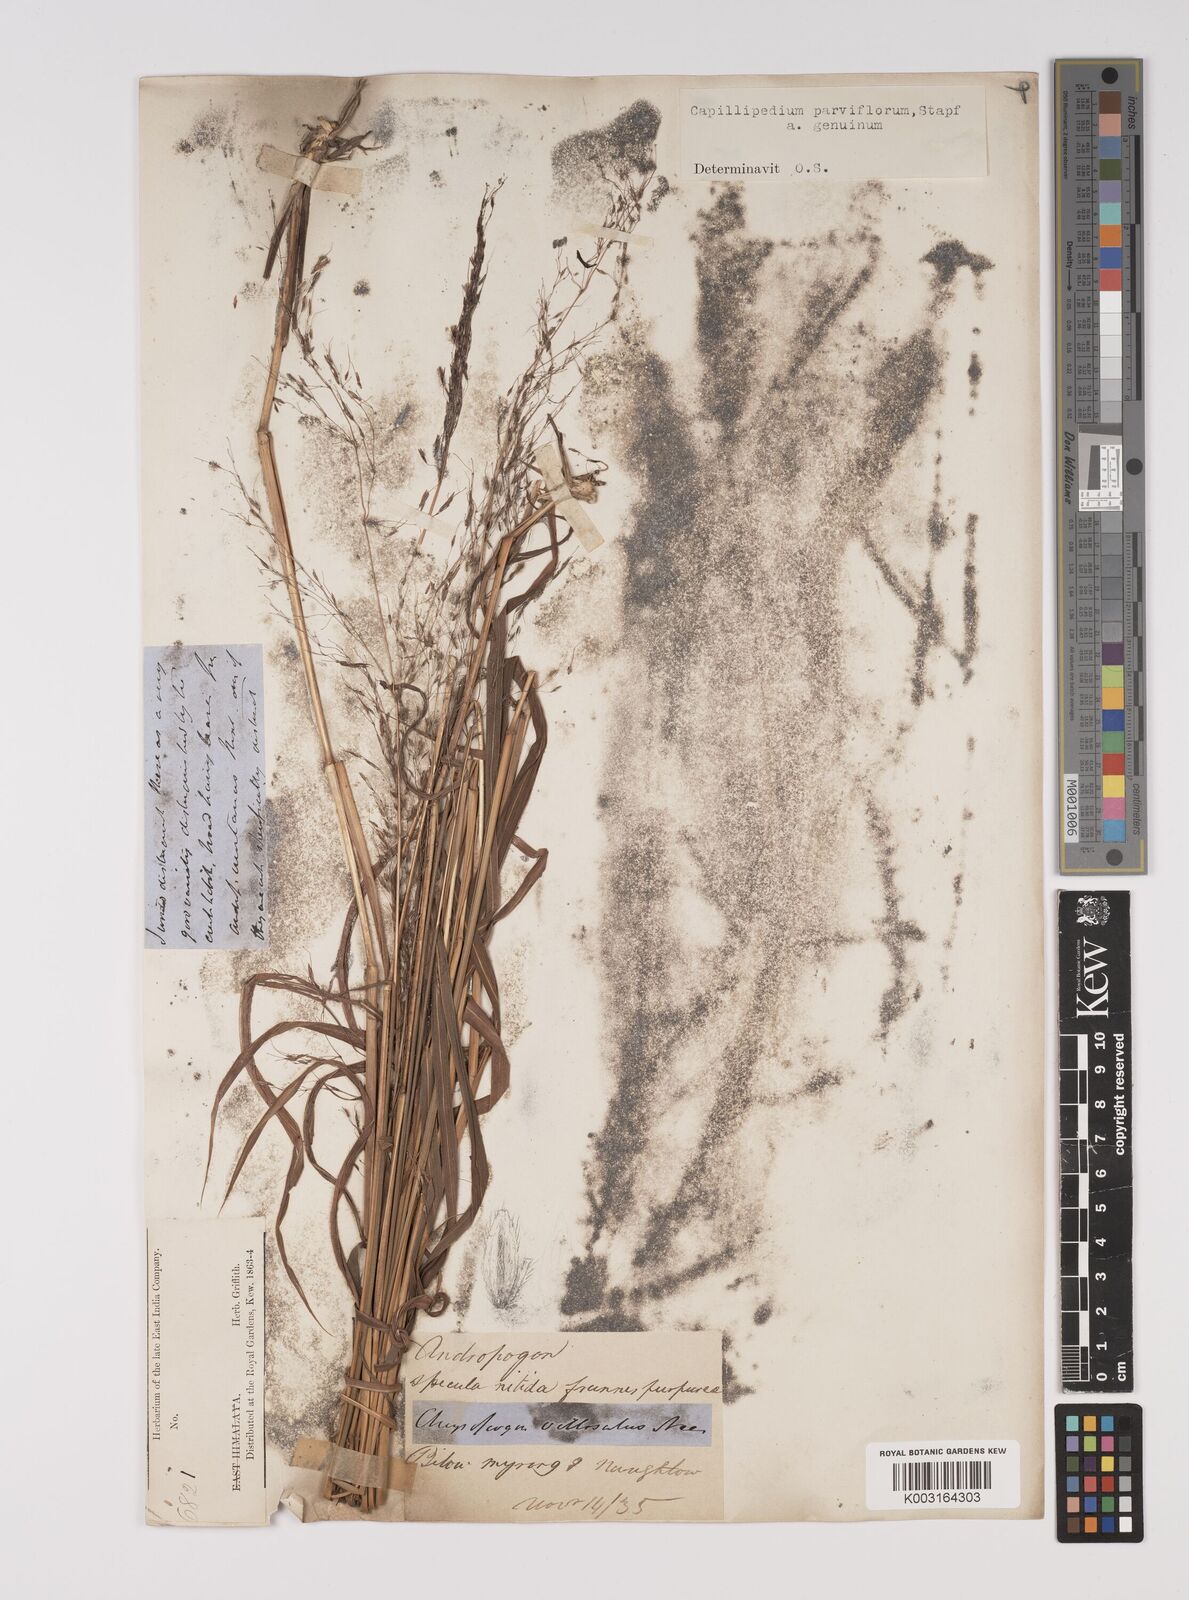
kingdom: Plantae
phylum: Tracheophyta
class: Liliopsida
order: Poales
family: Poaceae
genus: Capillipedium
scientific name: Capillipedium parviflorum
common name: Golden-beard
